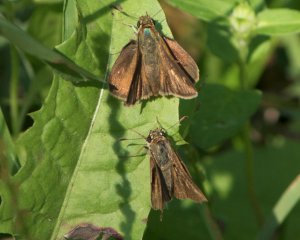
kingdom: Animalia
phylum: Arthropoda
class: Insecta
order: Lepidoptera
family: Hesperiidae
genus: Euphyes
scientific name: Euphyes vestris
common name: Dun Skipper
